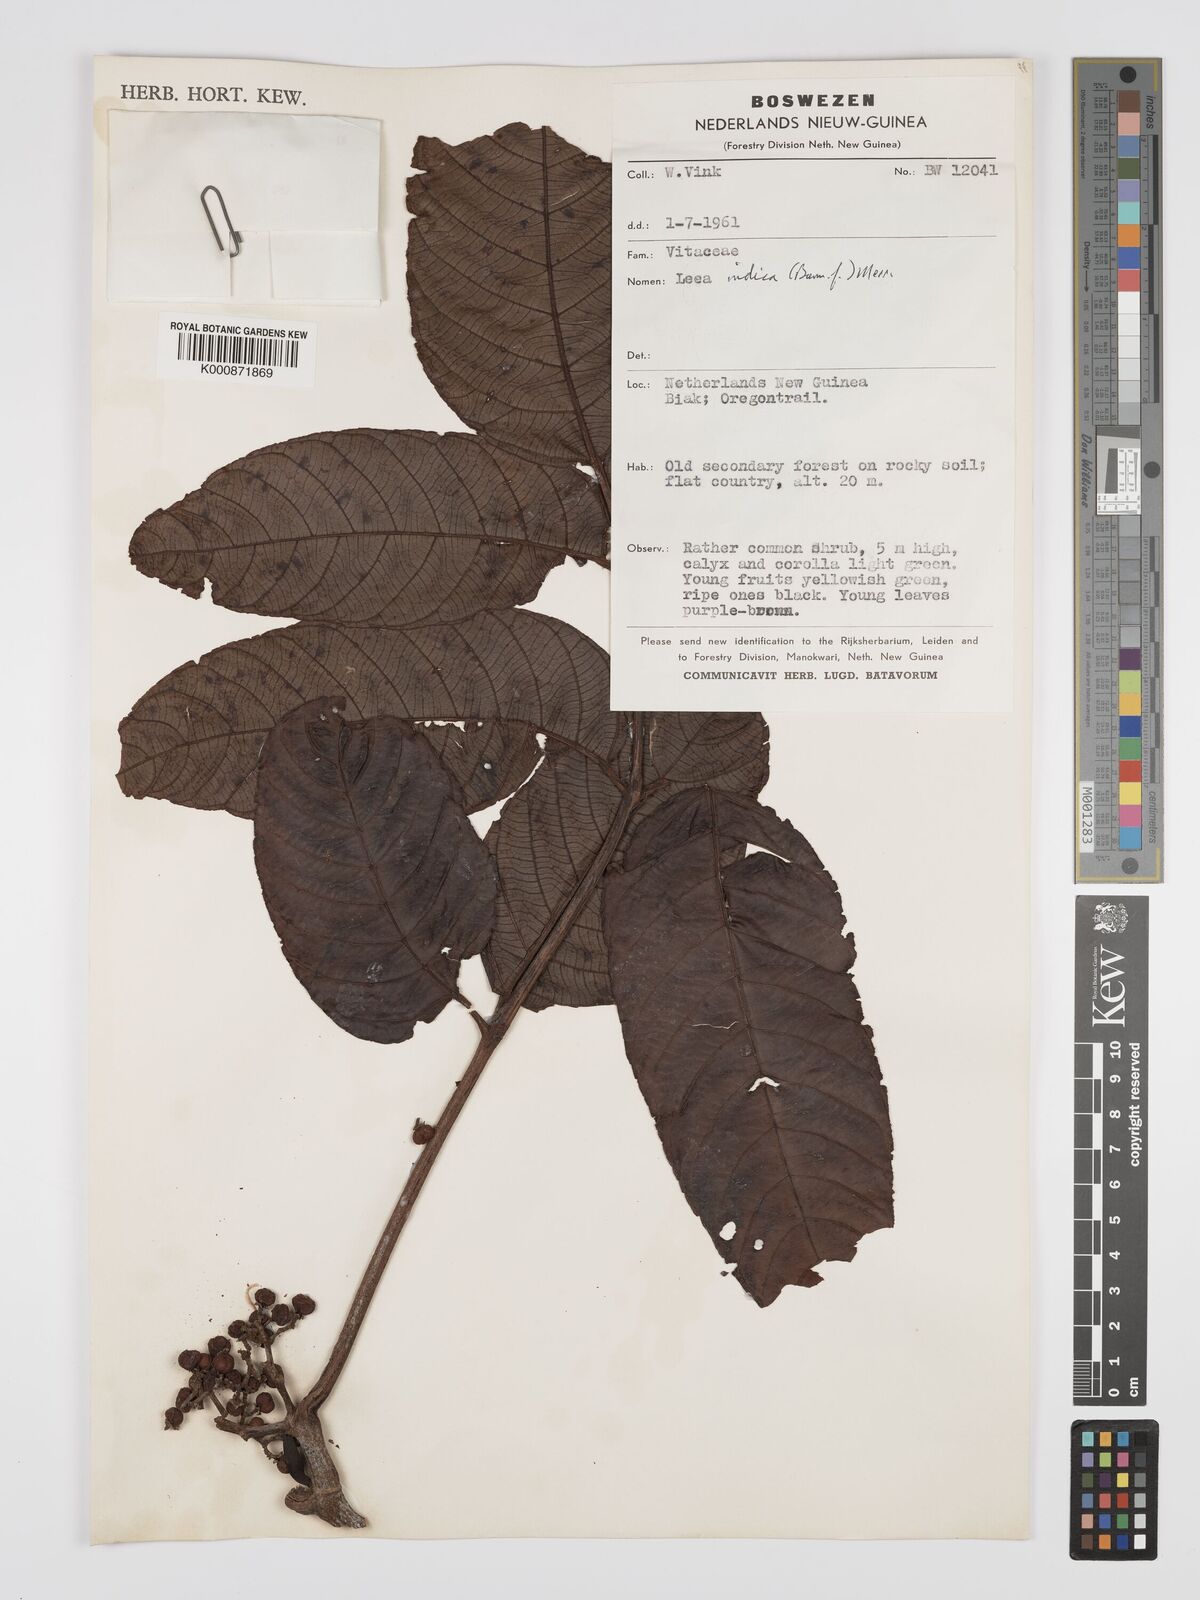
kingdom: Plantae
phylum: Tracheophyta
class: Magnoliopsida
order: Vitales
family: Vitaceae
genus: Leea
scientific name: Leea indica
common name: Bandicoot-berry
